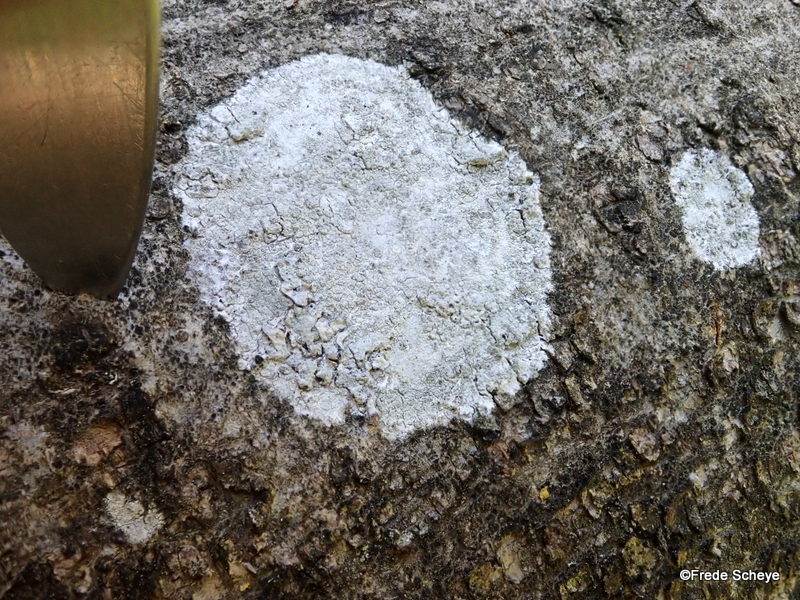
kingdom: Fungi
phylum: Ascomycota
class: Lecanoromycetes
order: Ostropales
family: Phlyctidaceae
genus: Phlyctis
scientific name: Phlyctis argena
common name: almindelig sølvlav
